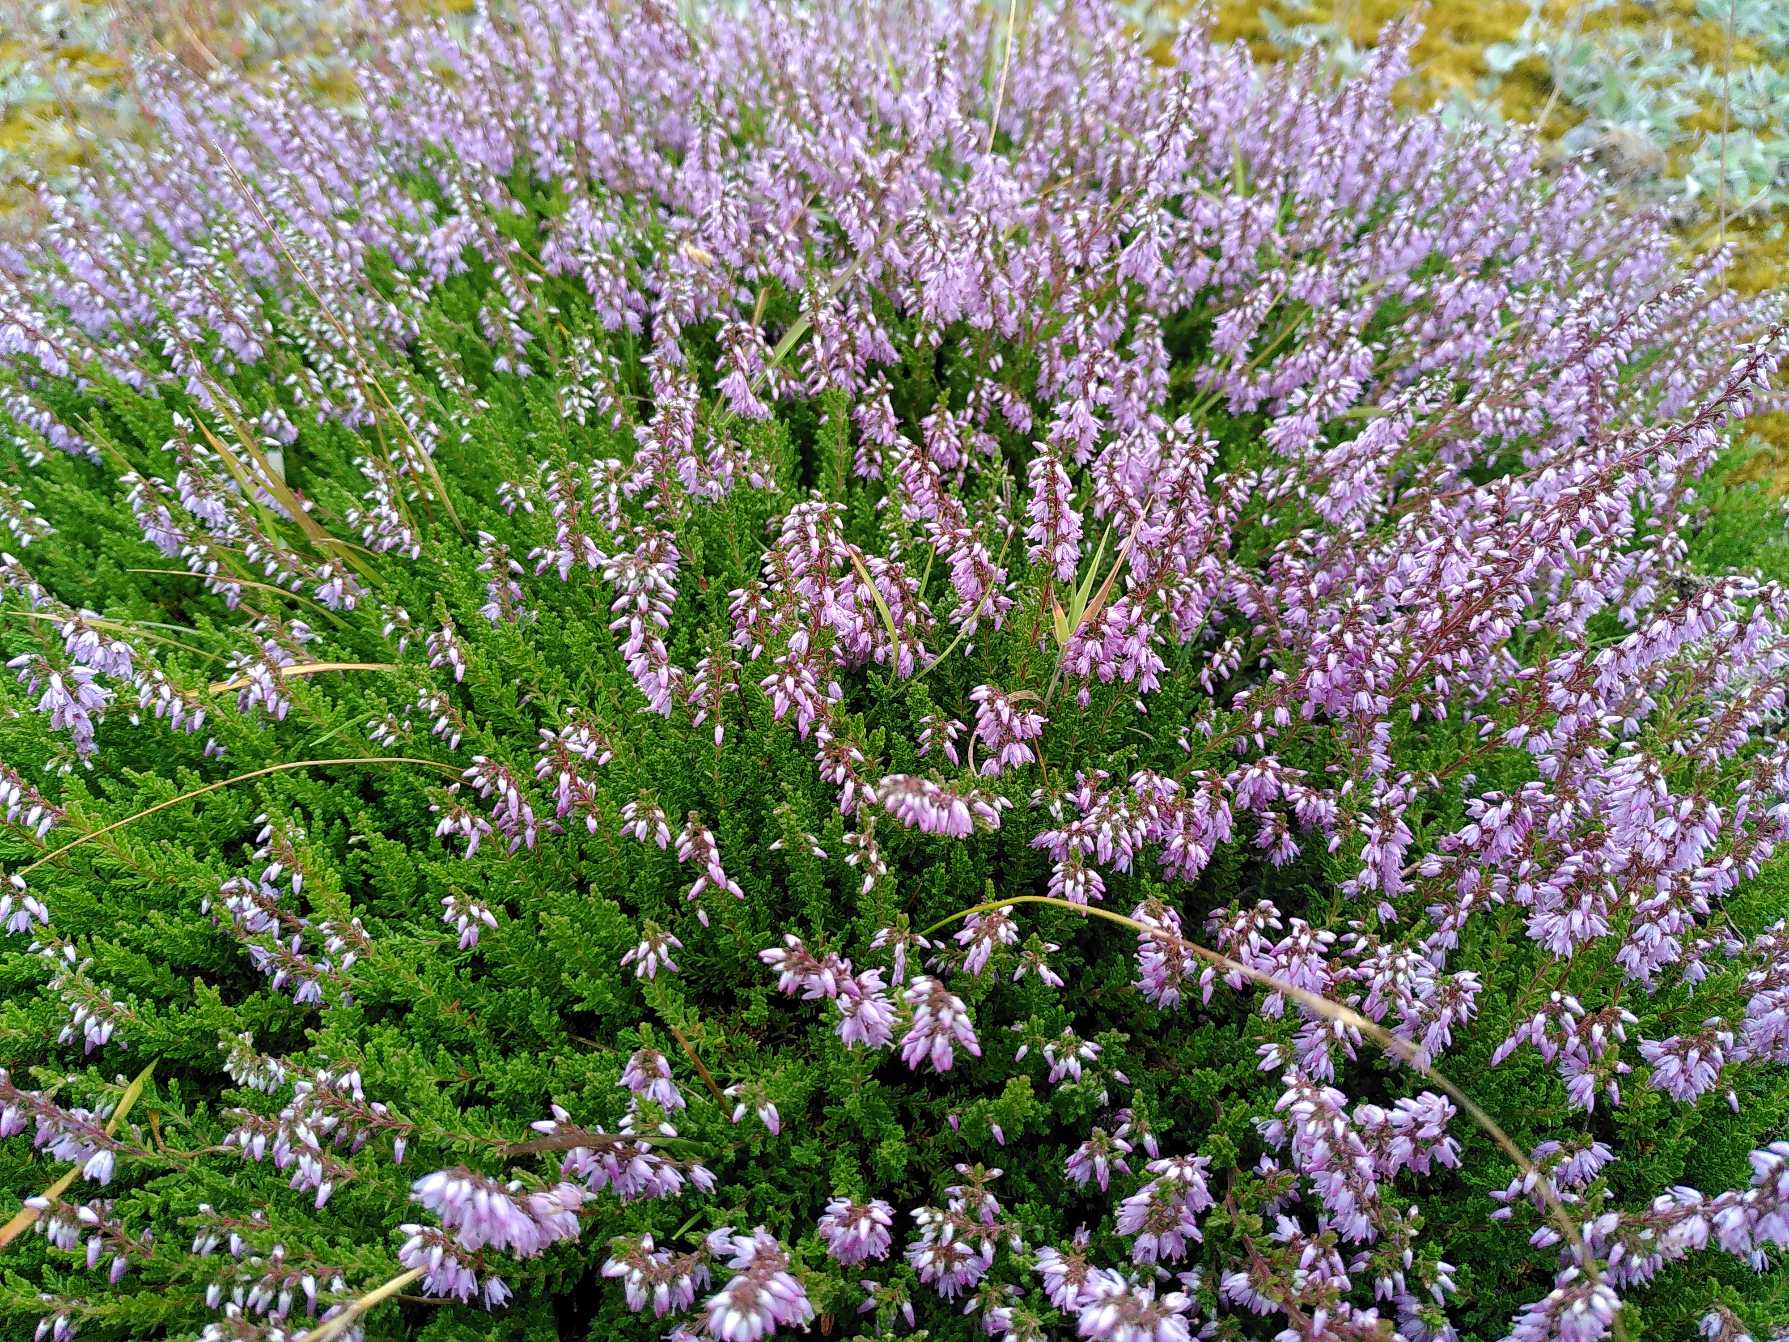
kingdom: Plantae
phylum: Tracheophyta
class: Magnoliopsida
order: Ericales
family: Ericaceae
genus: Calluna
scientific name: Calluna vulgaris
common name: Hedelyng
